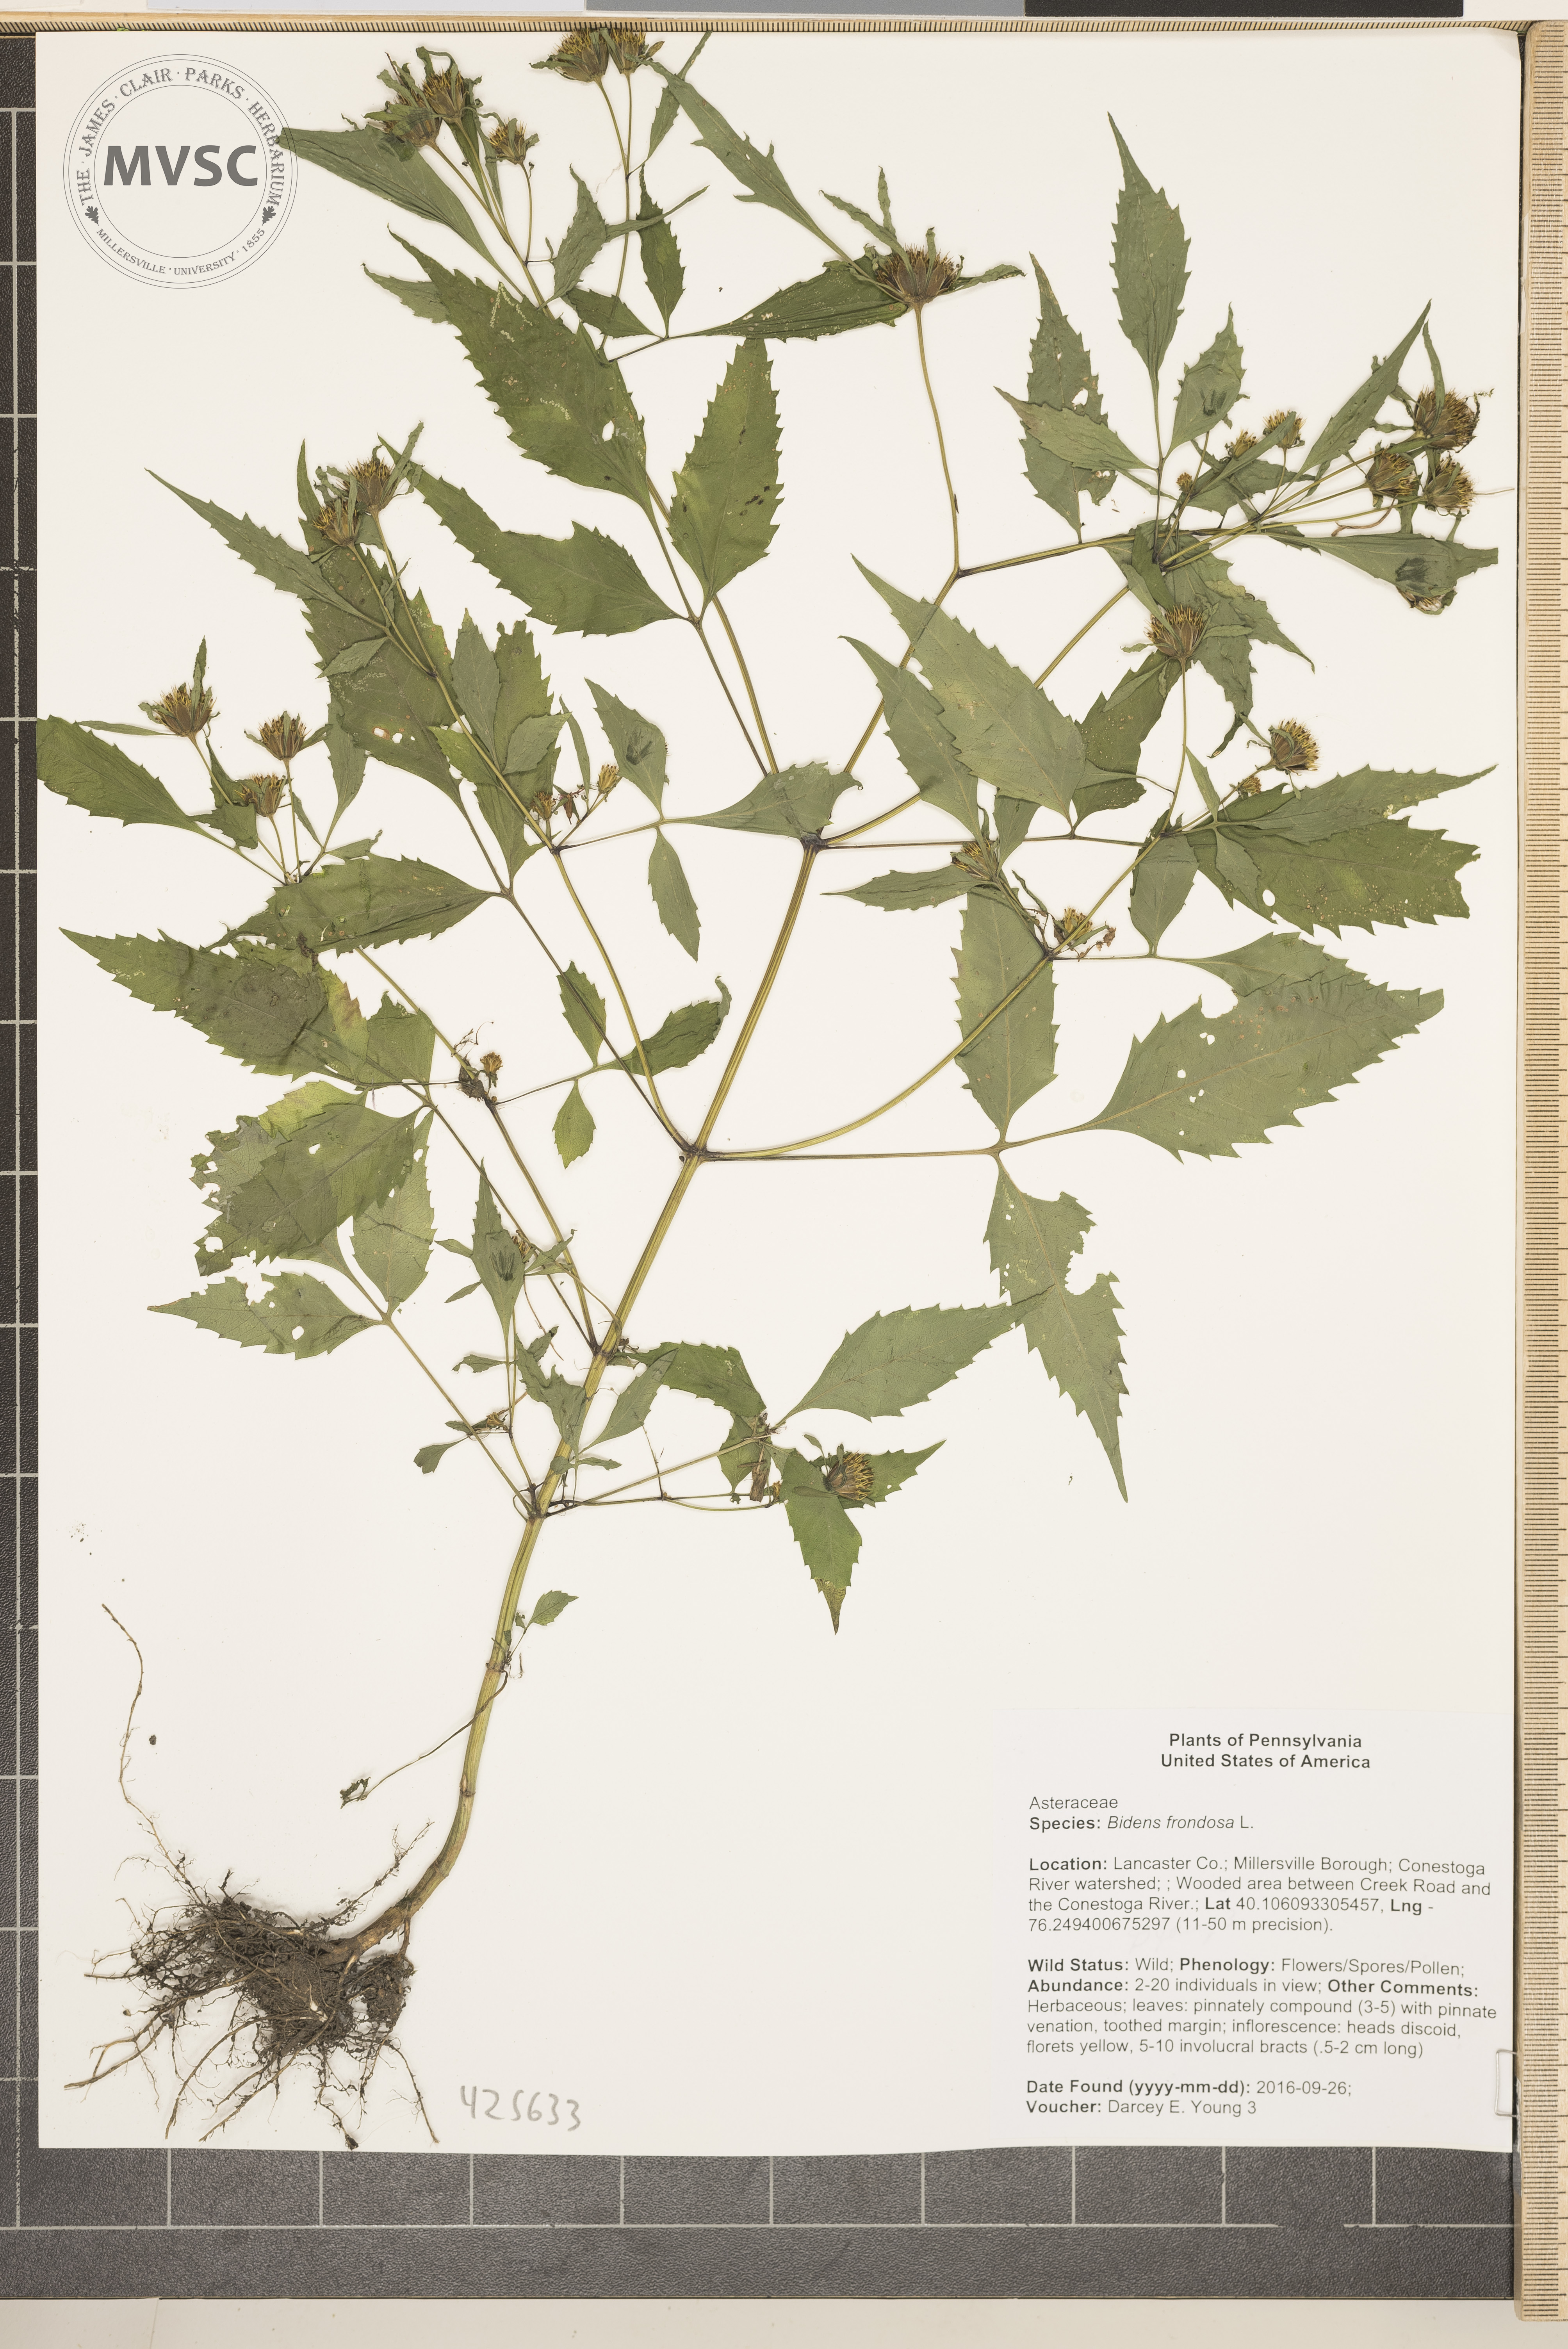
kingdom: Plantae
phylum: Tracheophyta
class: Magnoliopsida
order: Asterales
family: Asteraceae
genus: Bidens
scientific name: Bidens frondosa
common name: Beggar-ticks
